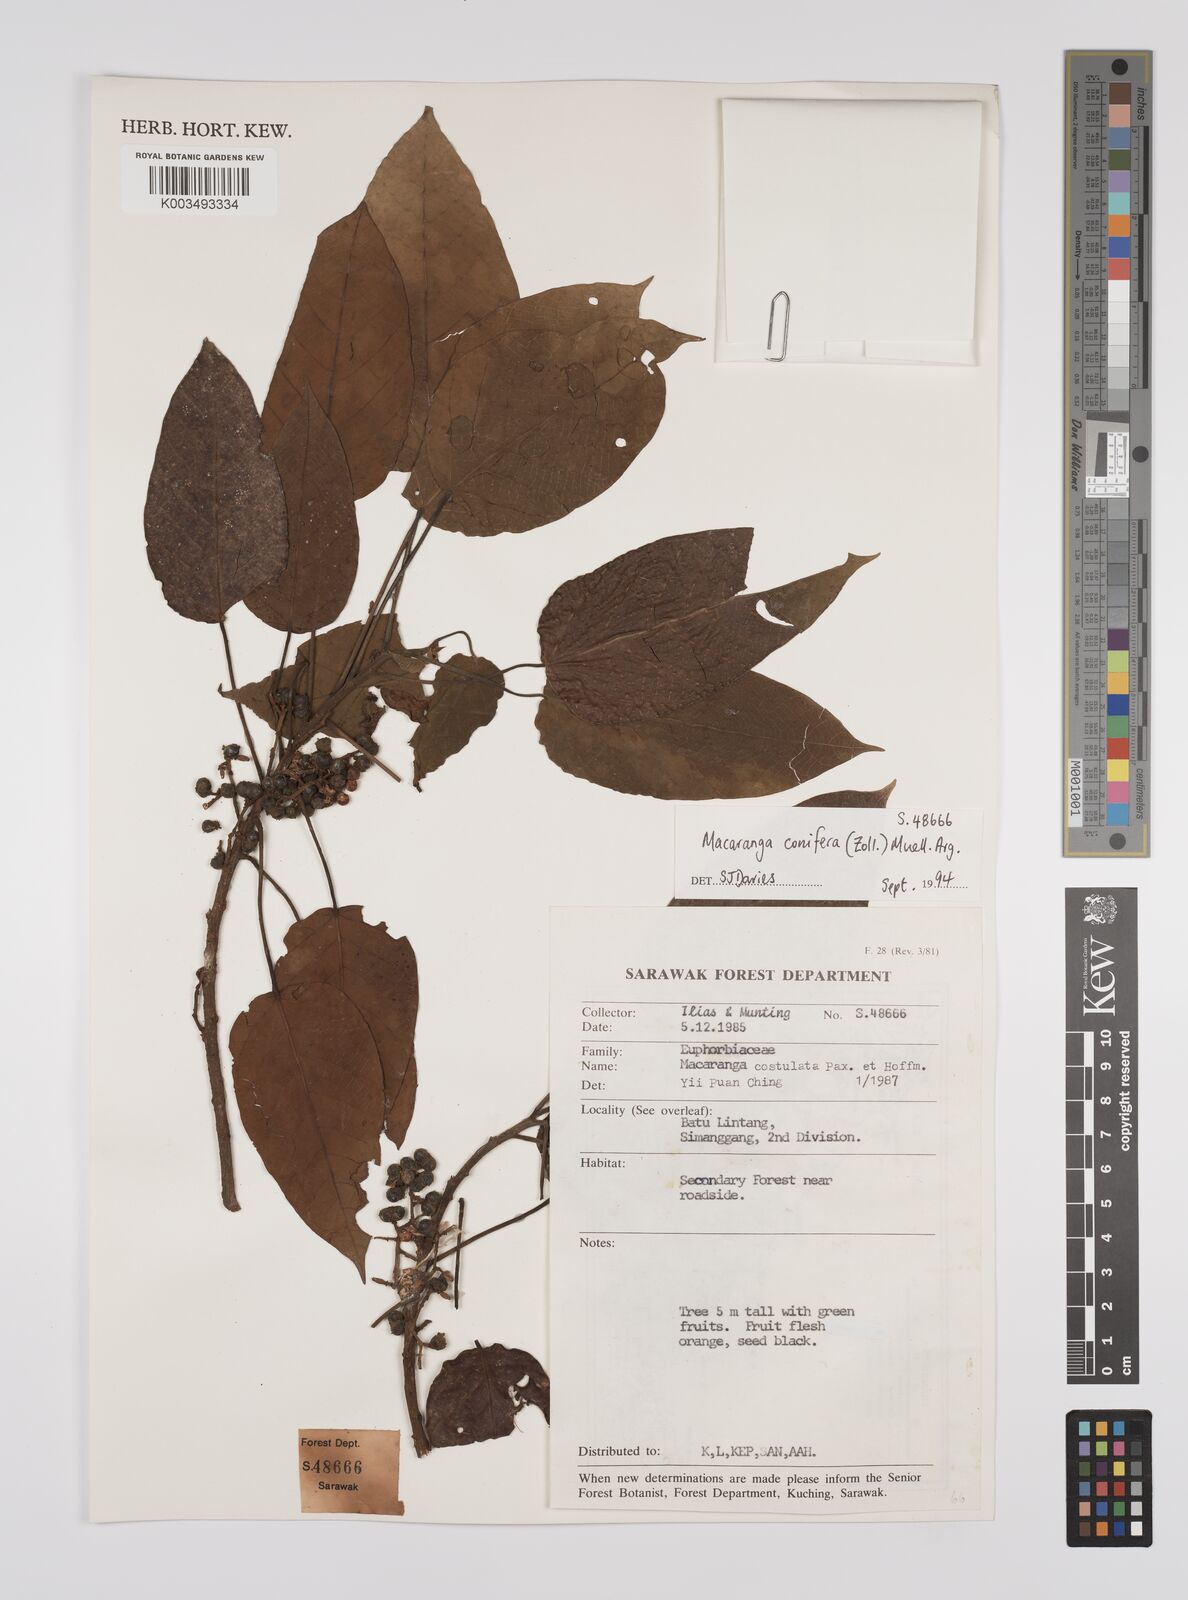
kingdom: Plantae
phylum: Tracheophyta
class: Magnoliopsida
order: Malpighiales
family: Euphorbiaceae
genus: Macaranga
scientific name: Macaranga conifera
